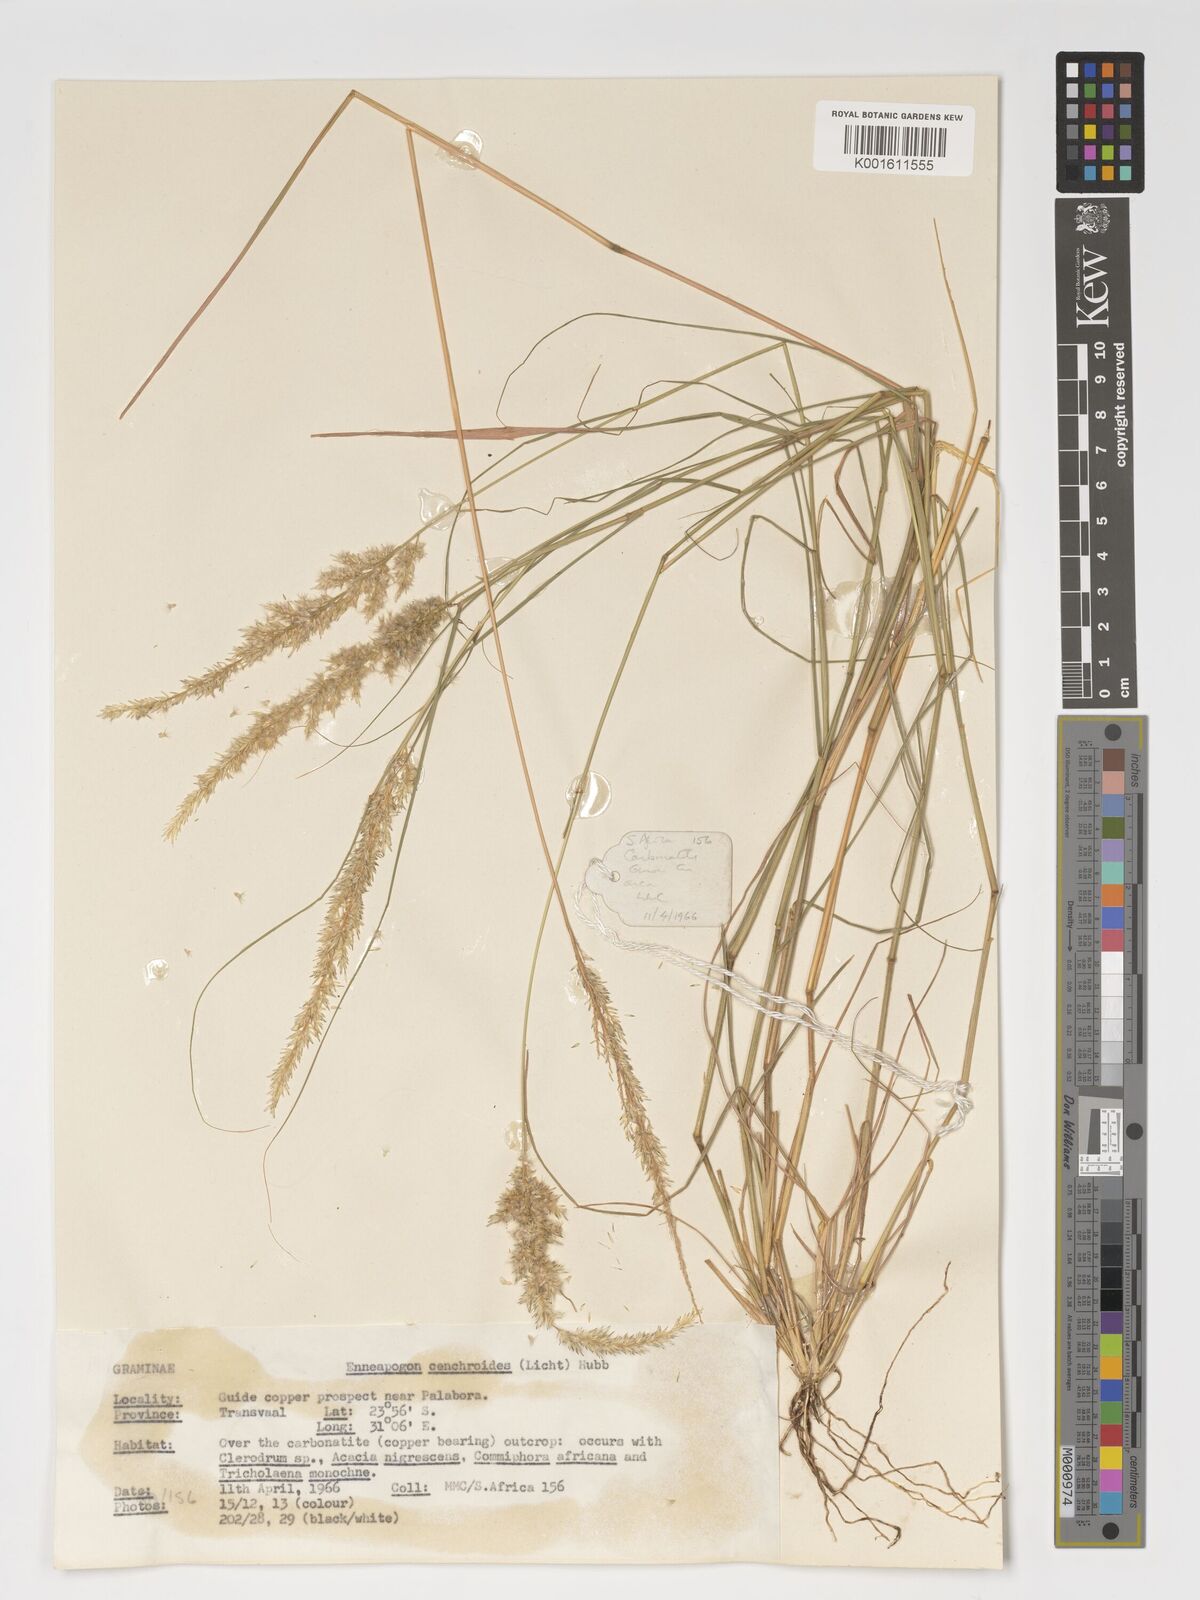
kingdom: Plantae
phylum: Tracheophyta
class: Liliopsida
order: Poales
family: Poaceae
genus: Enneapogon
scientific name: Enneapogon cenchroides
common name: Soft feather pappusgrass
